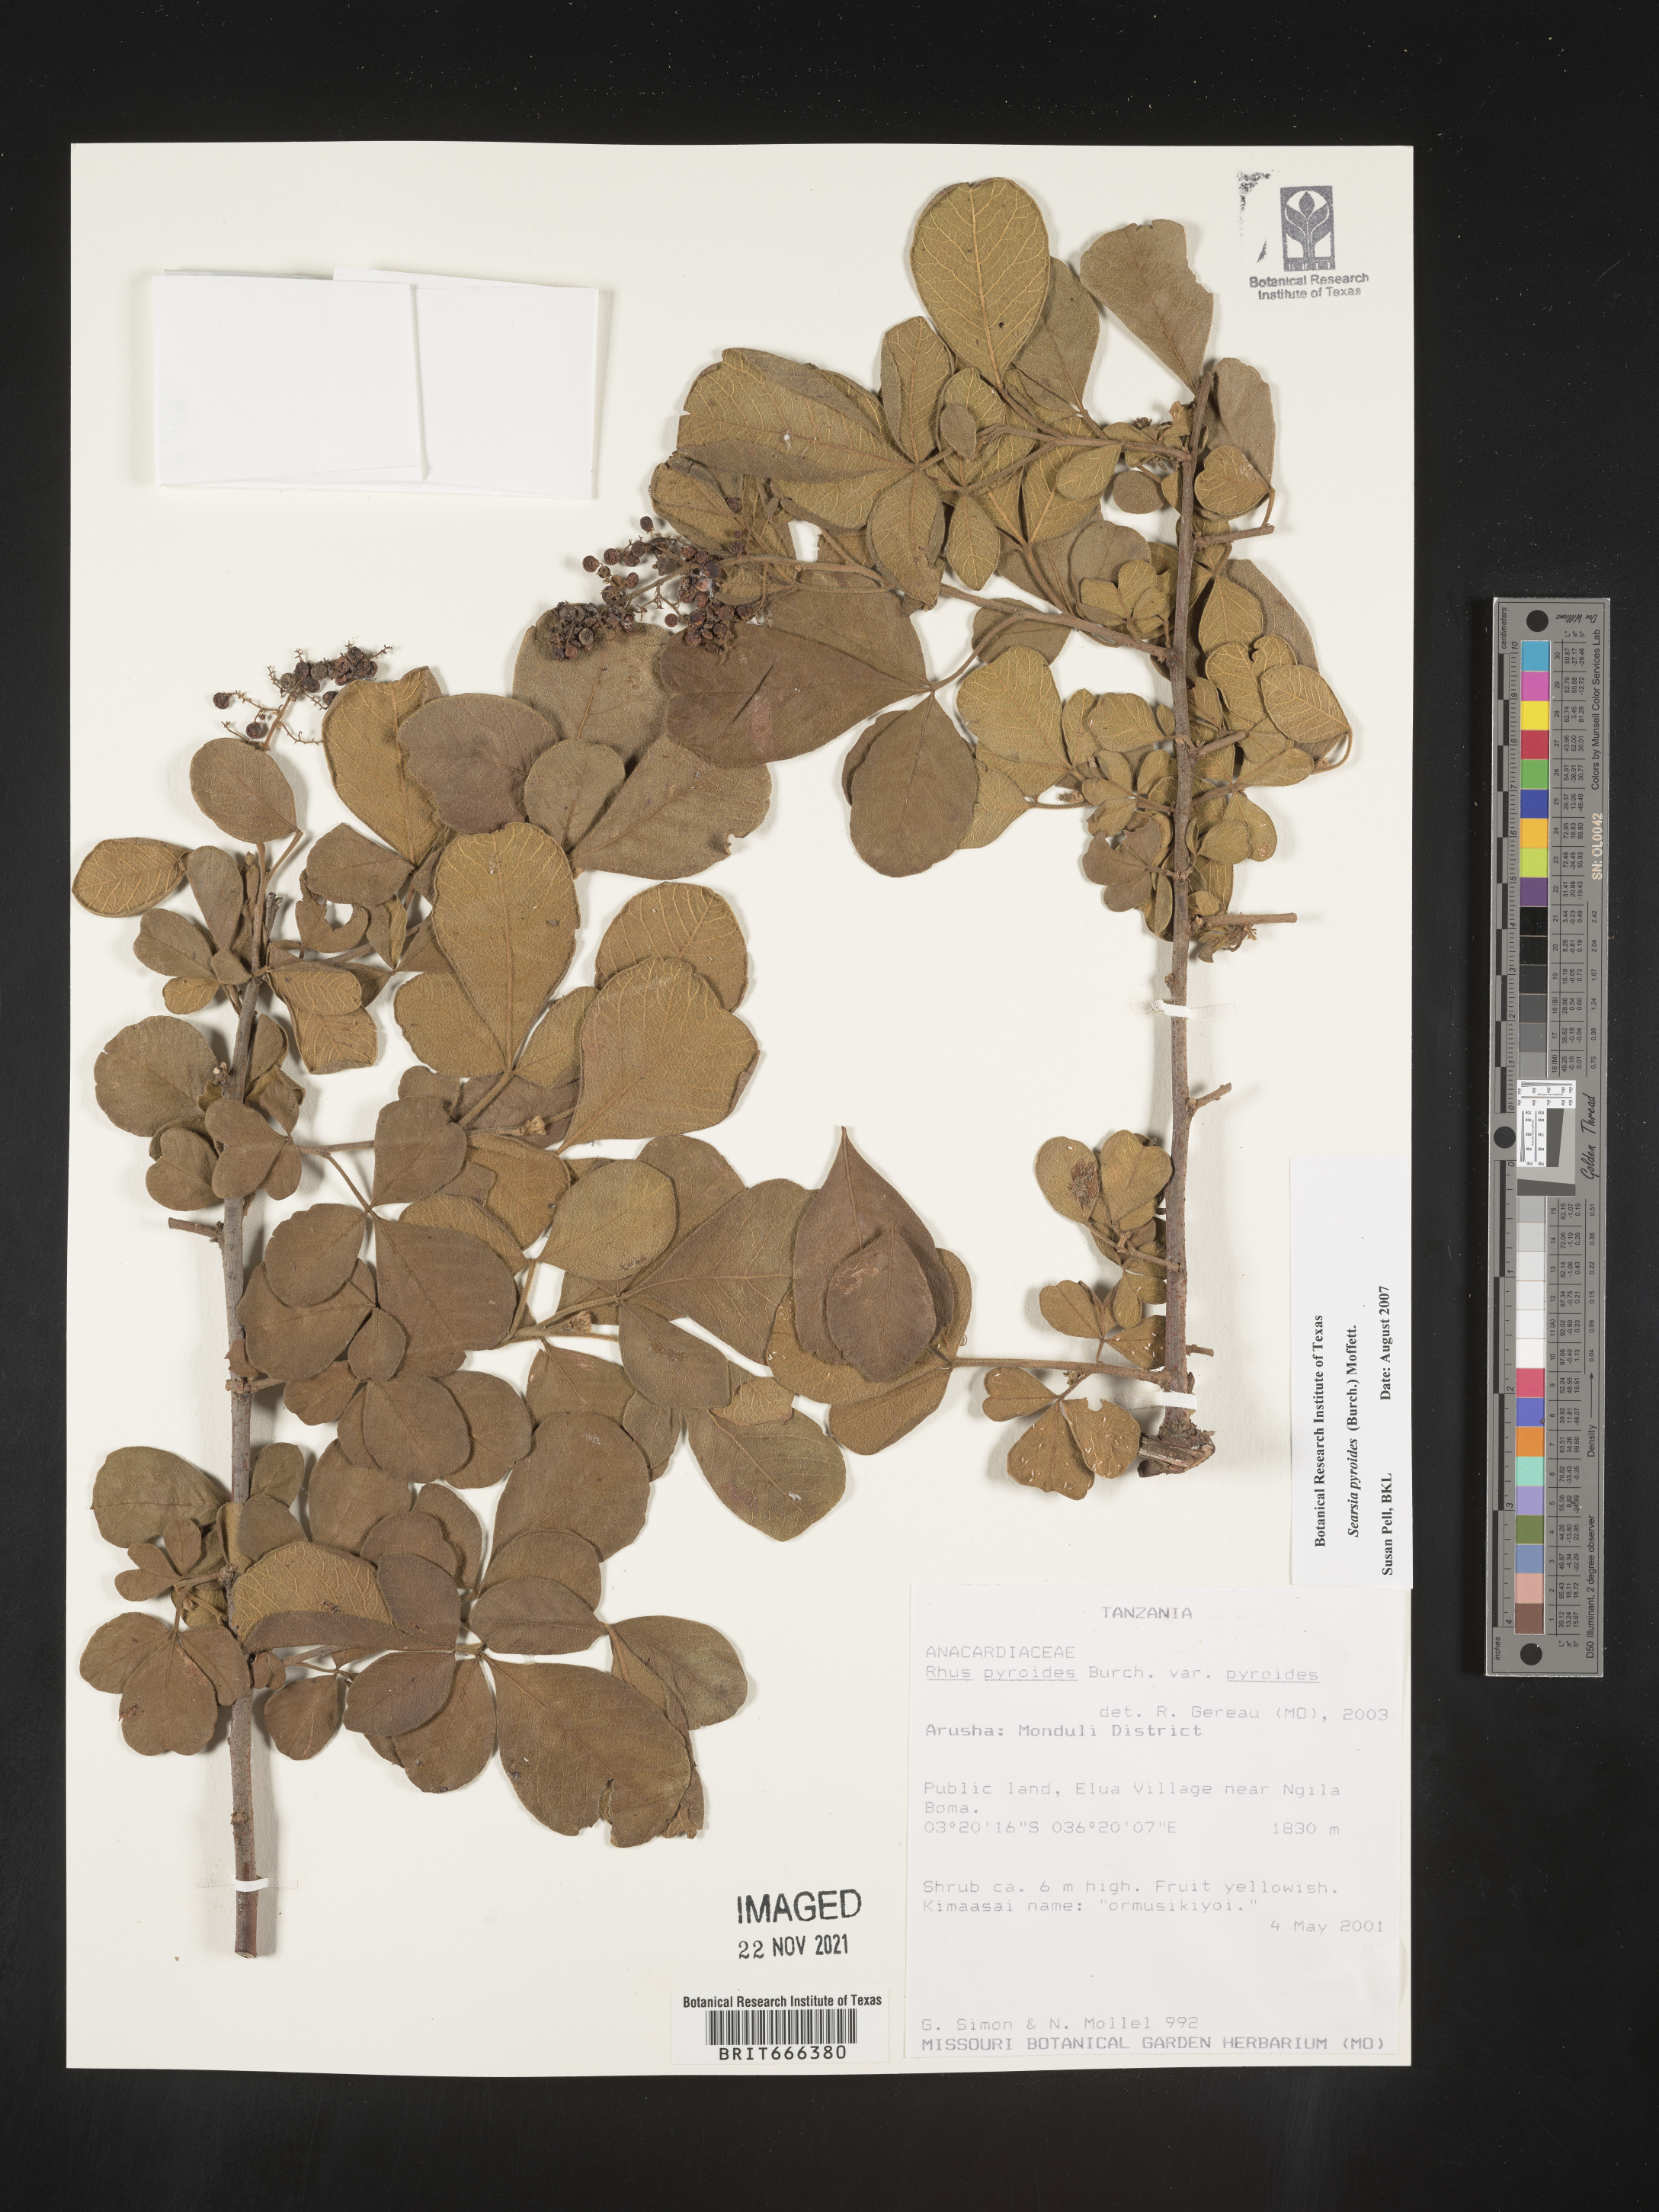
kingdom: Plantae
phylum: Tracheophyta
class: Magnoliopsida
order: Sapindales
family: Anacardiaceae
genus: Searsia
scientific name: Searsia pyroides
